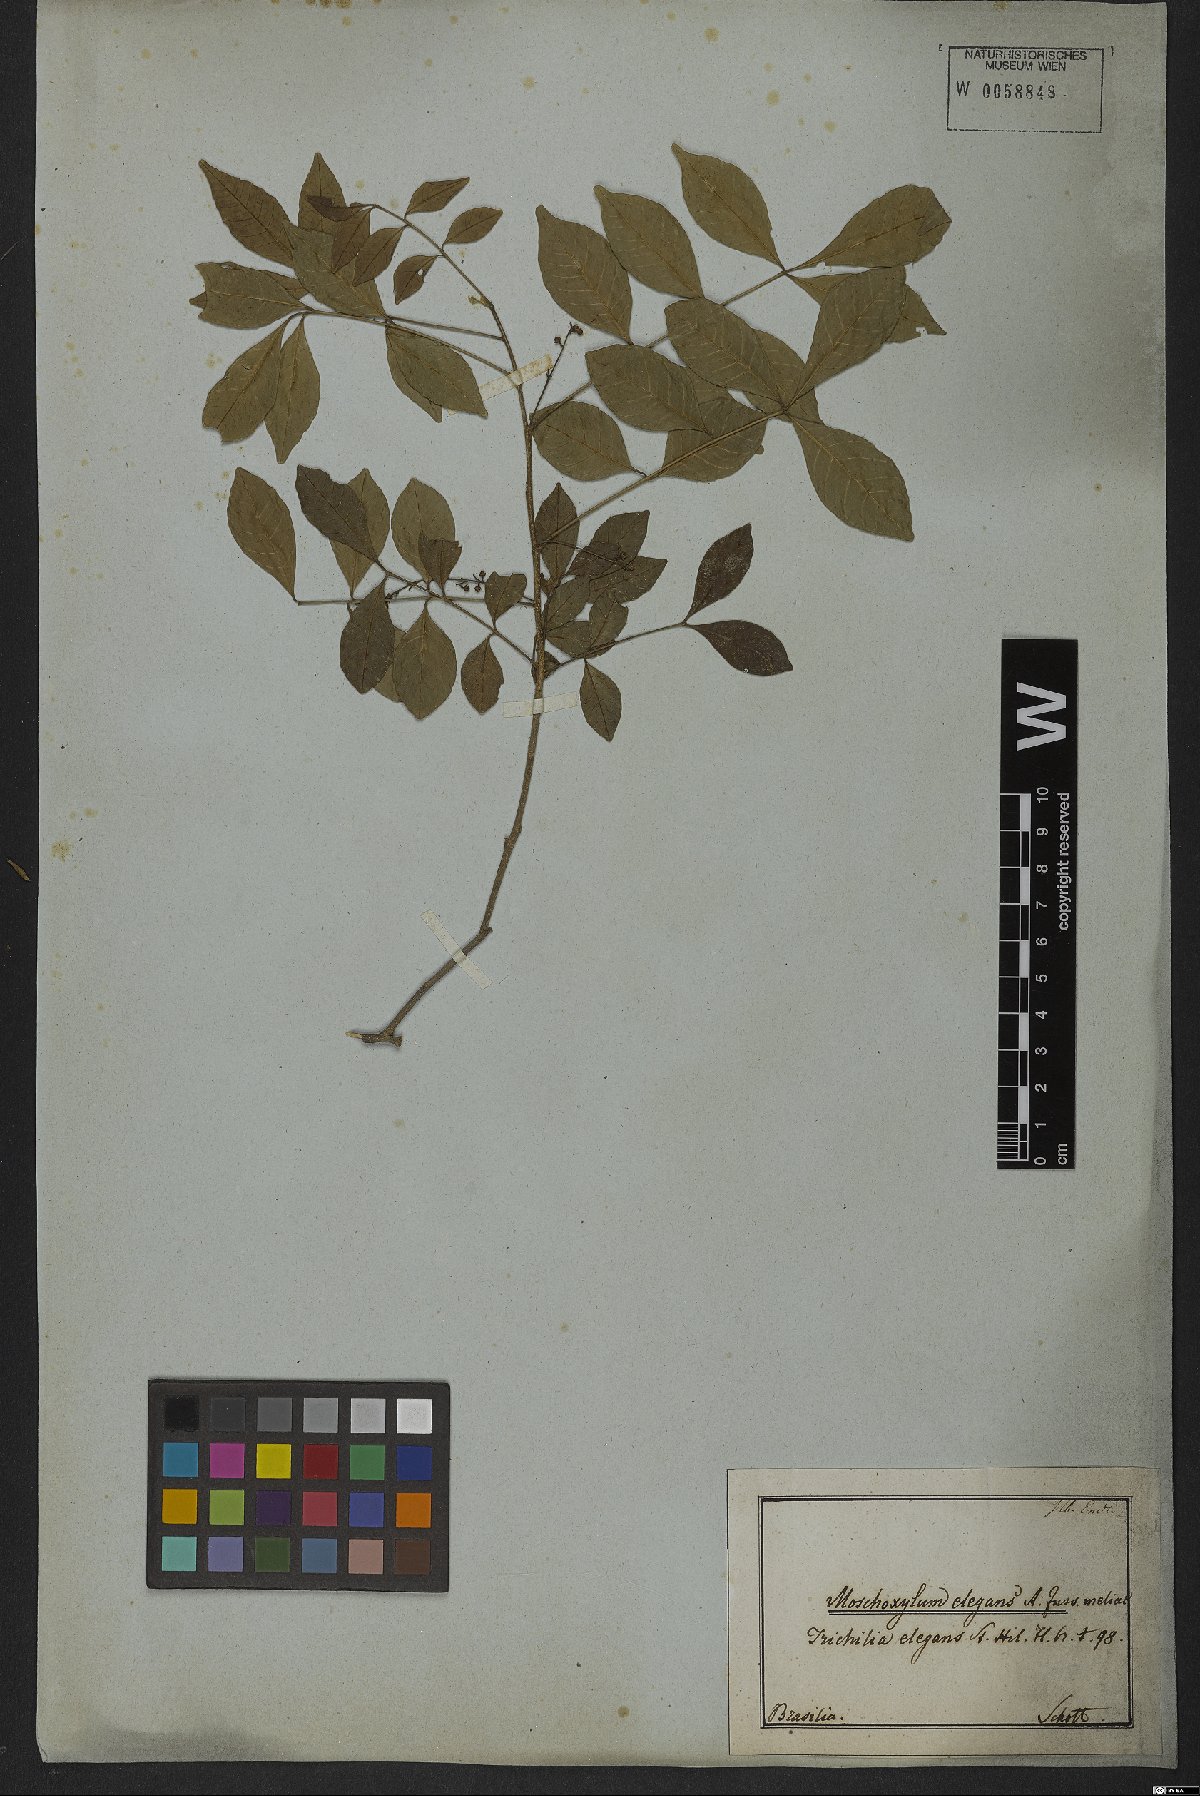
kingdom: Plantae
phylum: Tracheophyta
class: Magnoliopsida
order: Sapindales
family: Meliaceae
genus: Trichilia
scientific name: Trichilia elegans
